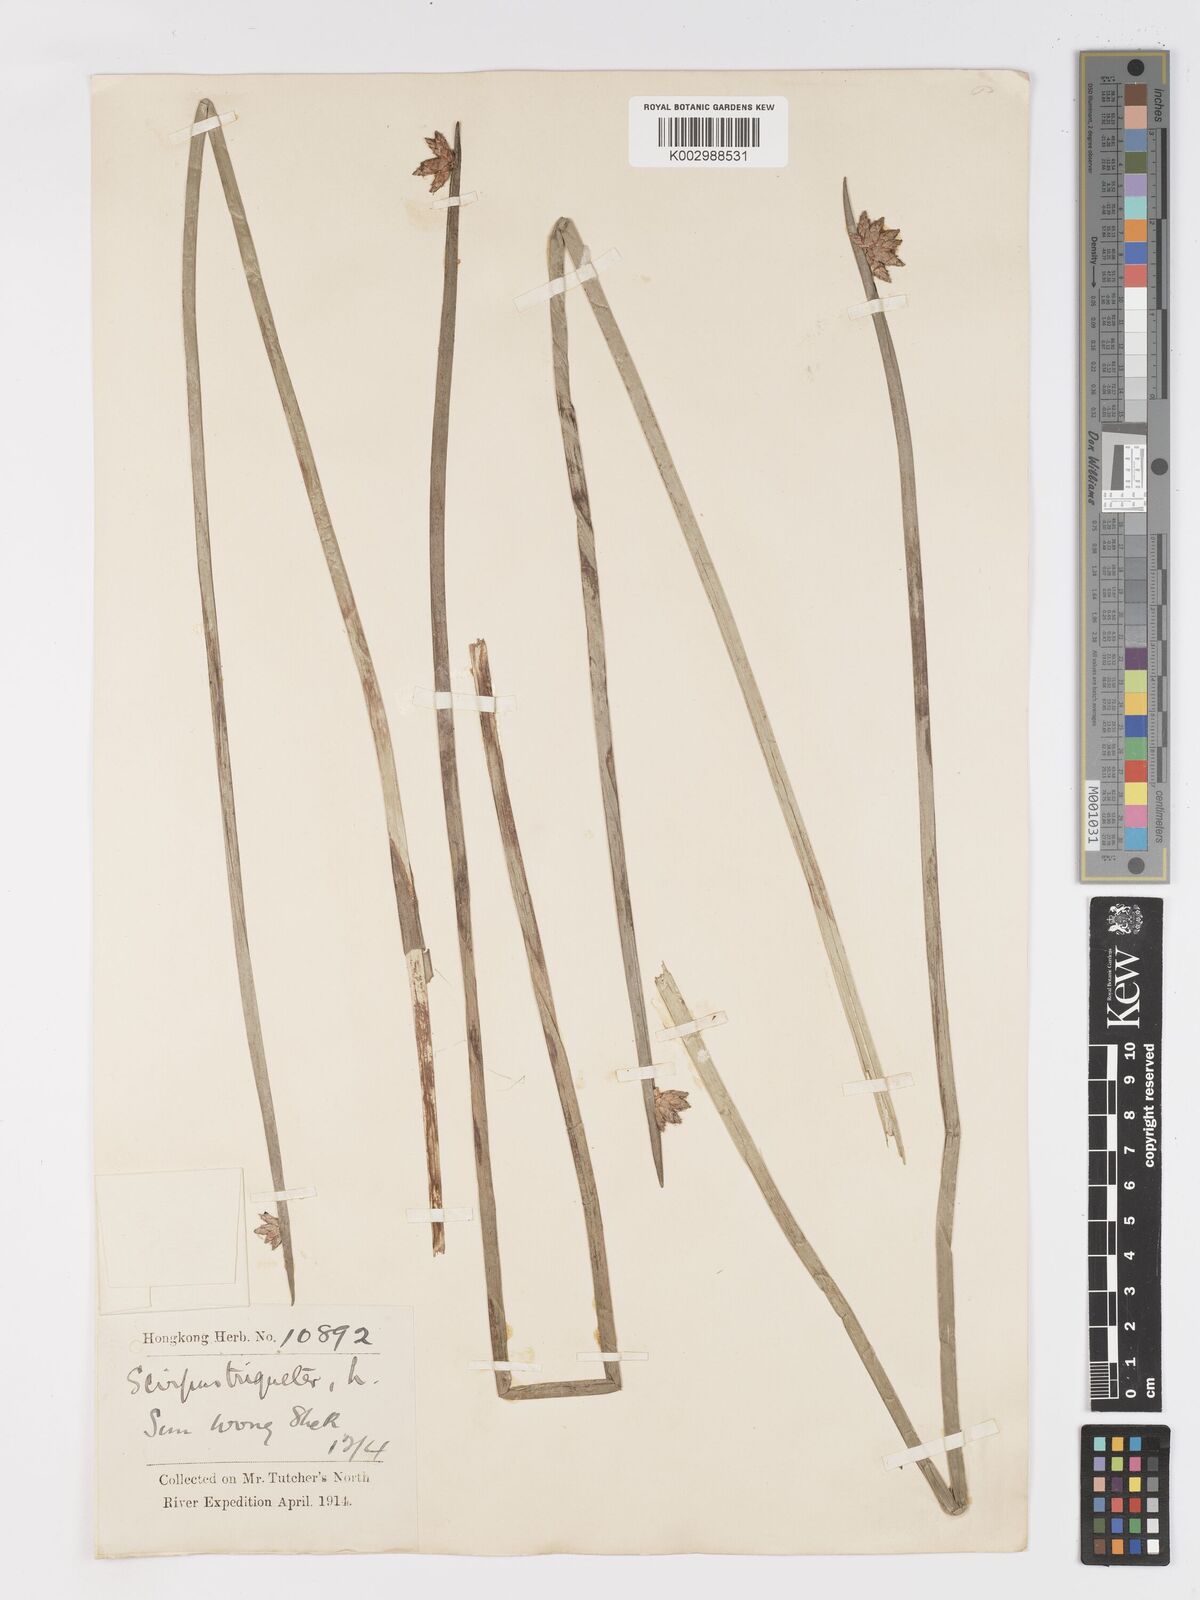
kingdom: Plantae
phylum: Tracheophyta
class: Liliopsida
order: Poales
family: Cyperaceae
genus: Schoenoplectus
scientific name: Schoenoplectus triqueter
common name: Triangular club-rush
